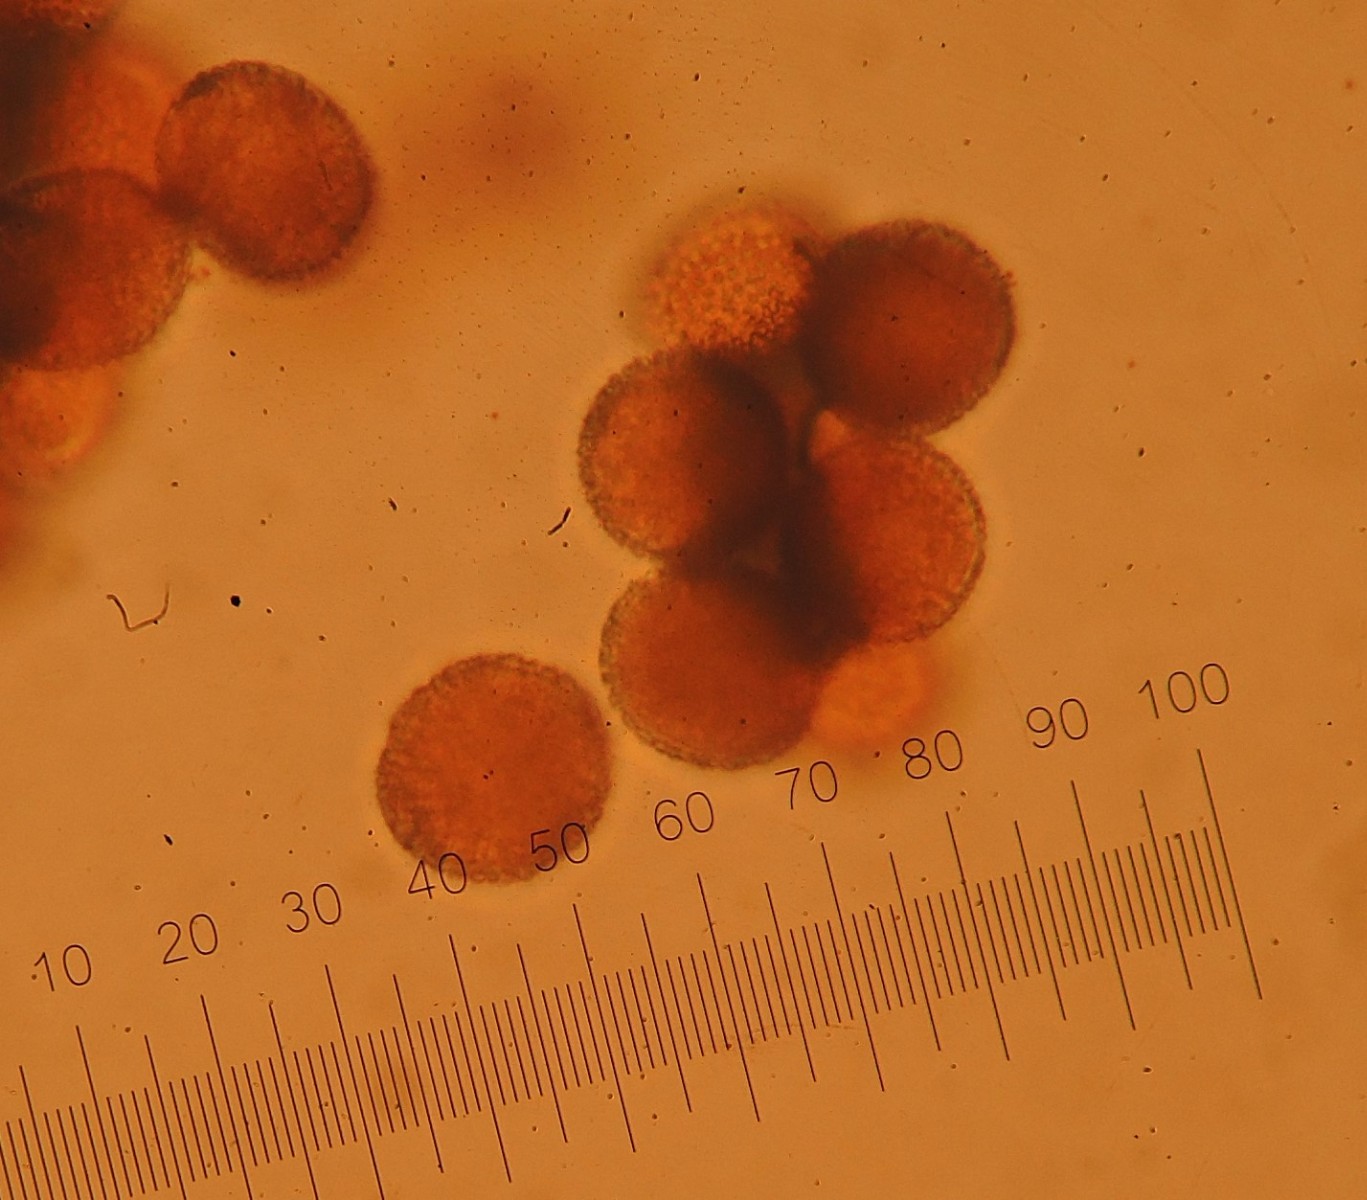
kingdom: Fungi
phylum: Basidiomycota
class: Pucciniomycetes
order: Pucciniales
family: Coleosporiaceae
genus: Coleosporium
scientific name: Coleosporium senecionis
